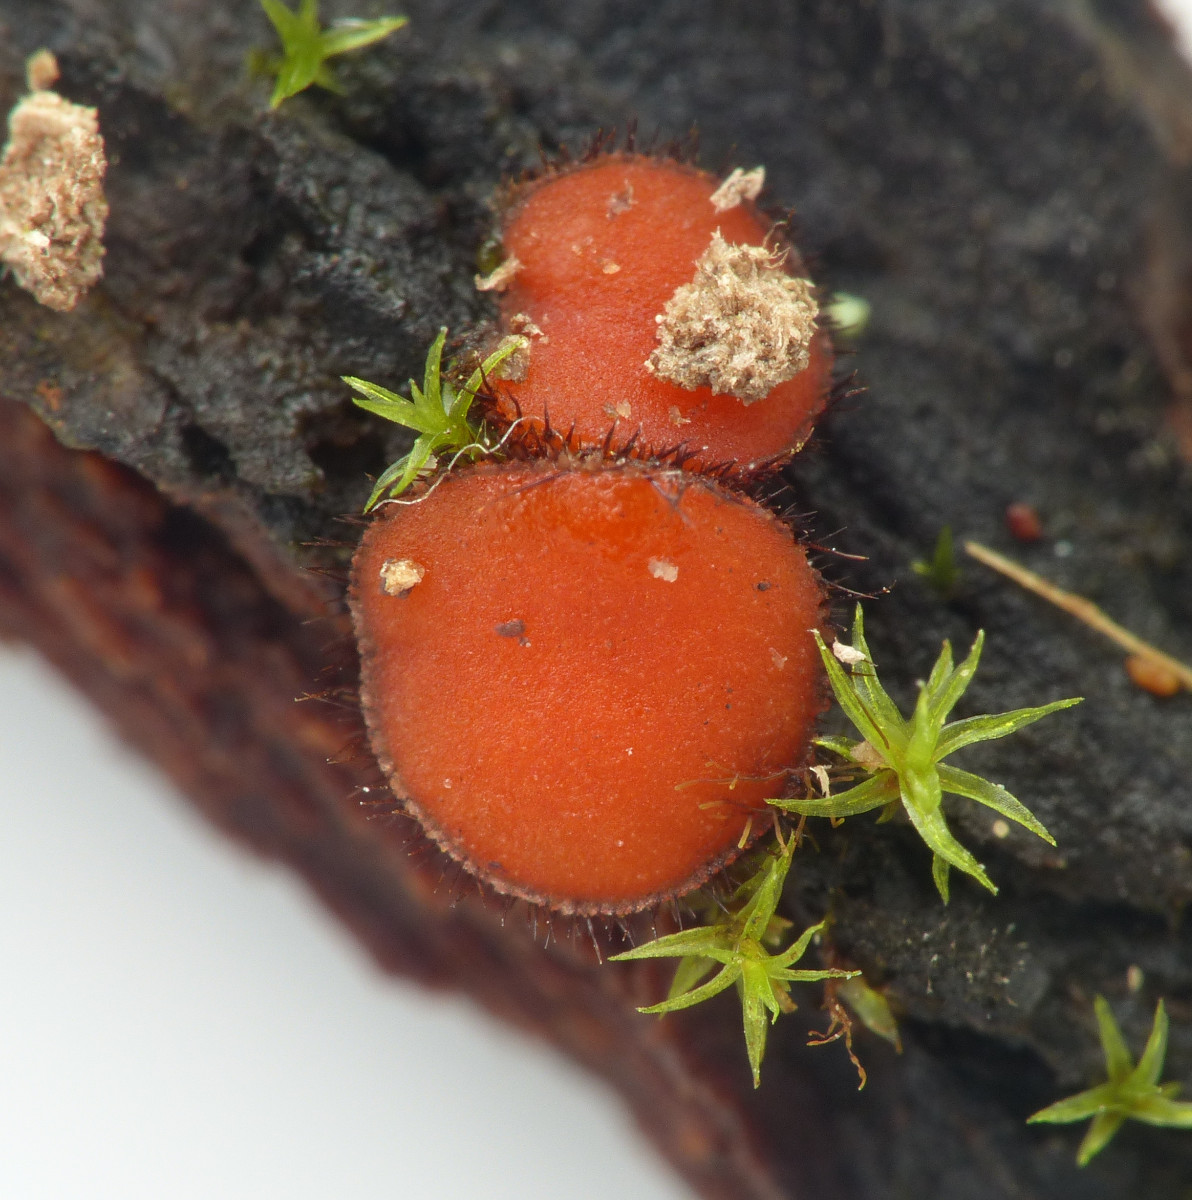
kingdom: Fungi
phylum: Ascomycota
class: Pezizomycetes
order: Pezizales
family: Pyronemataceae
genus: Scutellinia
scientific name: Scutellinia
